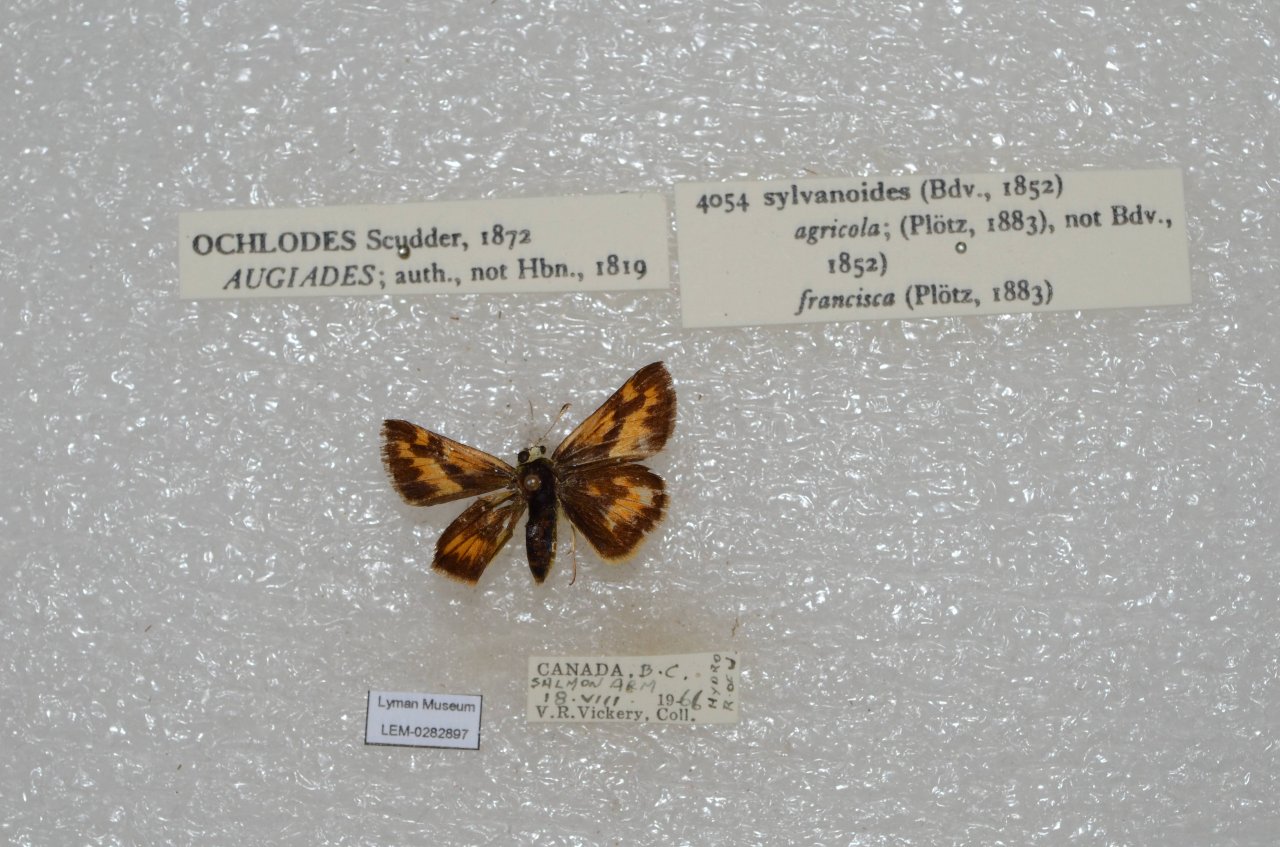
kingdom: Animalia
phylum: Arthropoda
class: Insecta
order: Lepidoptera
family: Hesperiidae
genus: Ochlodes
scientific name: Ochlodes sylvanoides
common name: Woodland Skipper
